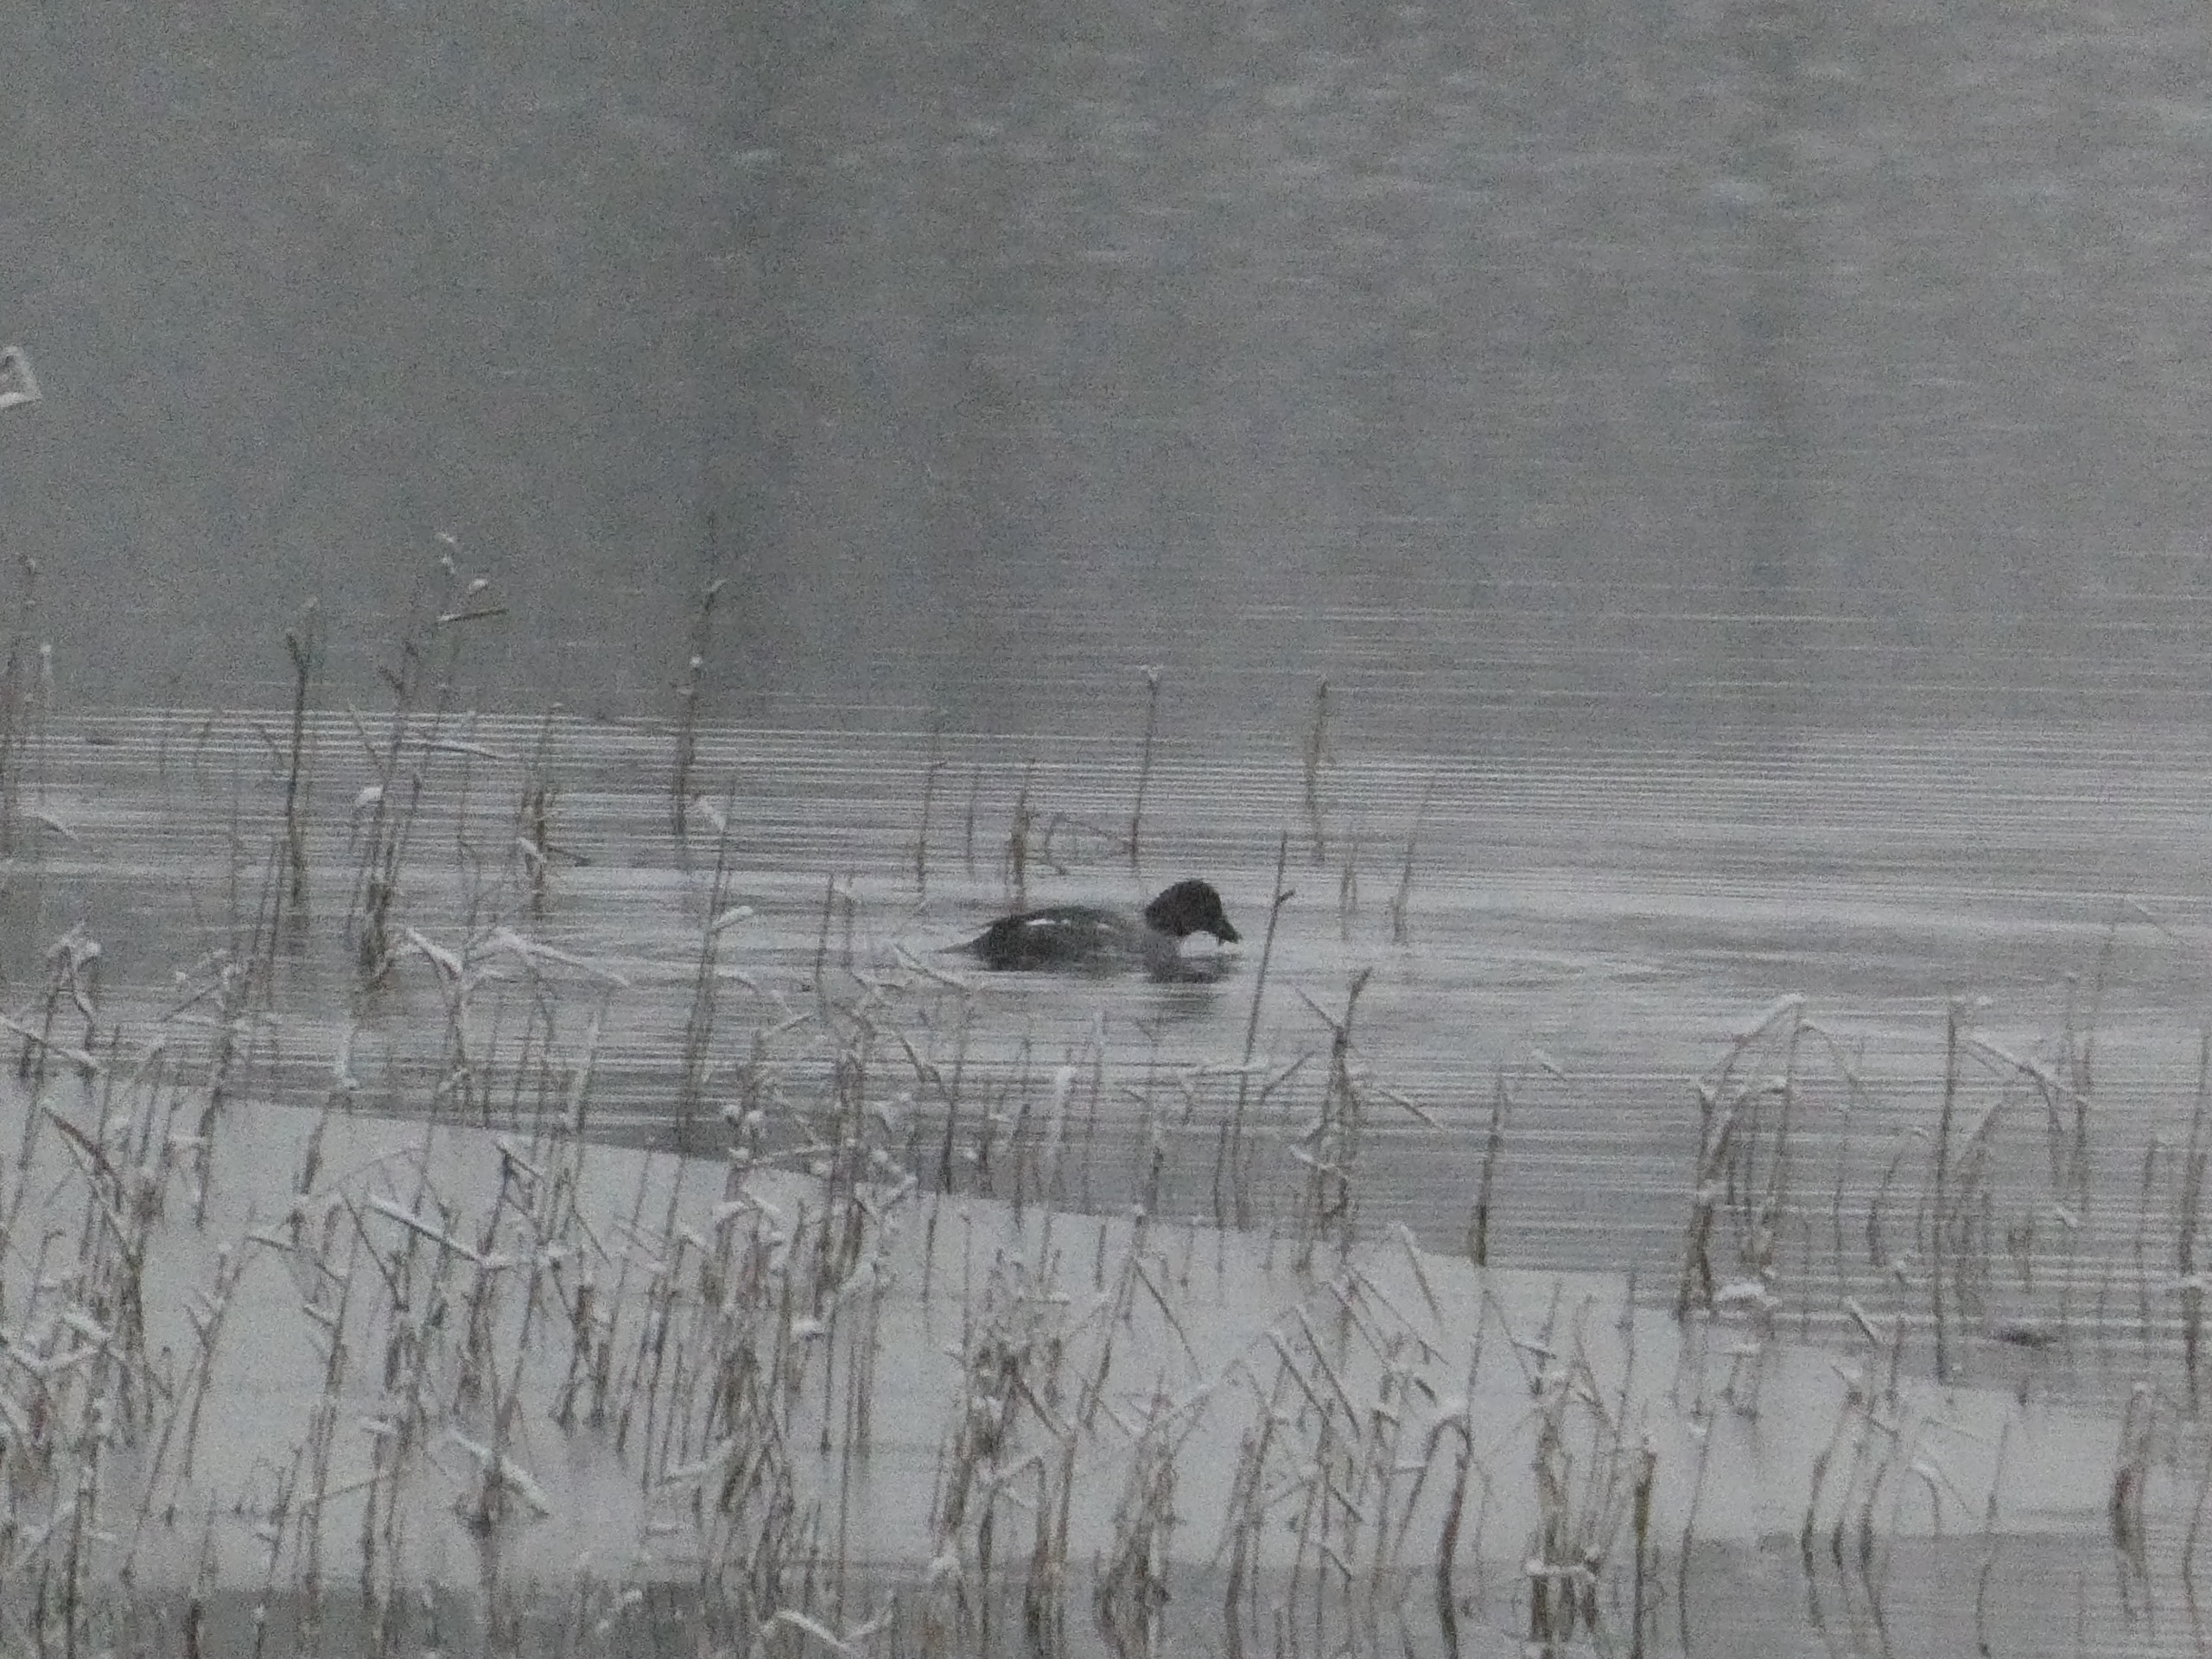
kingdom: Animalia
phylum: Chordata
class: Aves
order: Anseriformes
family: Anatidae
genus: Bucephala
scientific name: Bucephala clangula
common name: Hvinand
